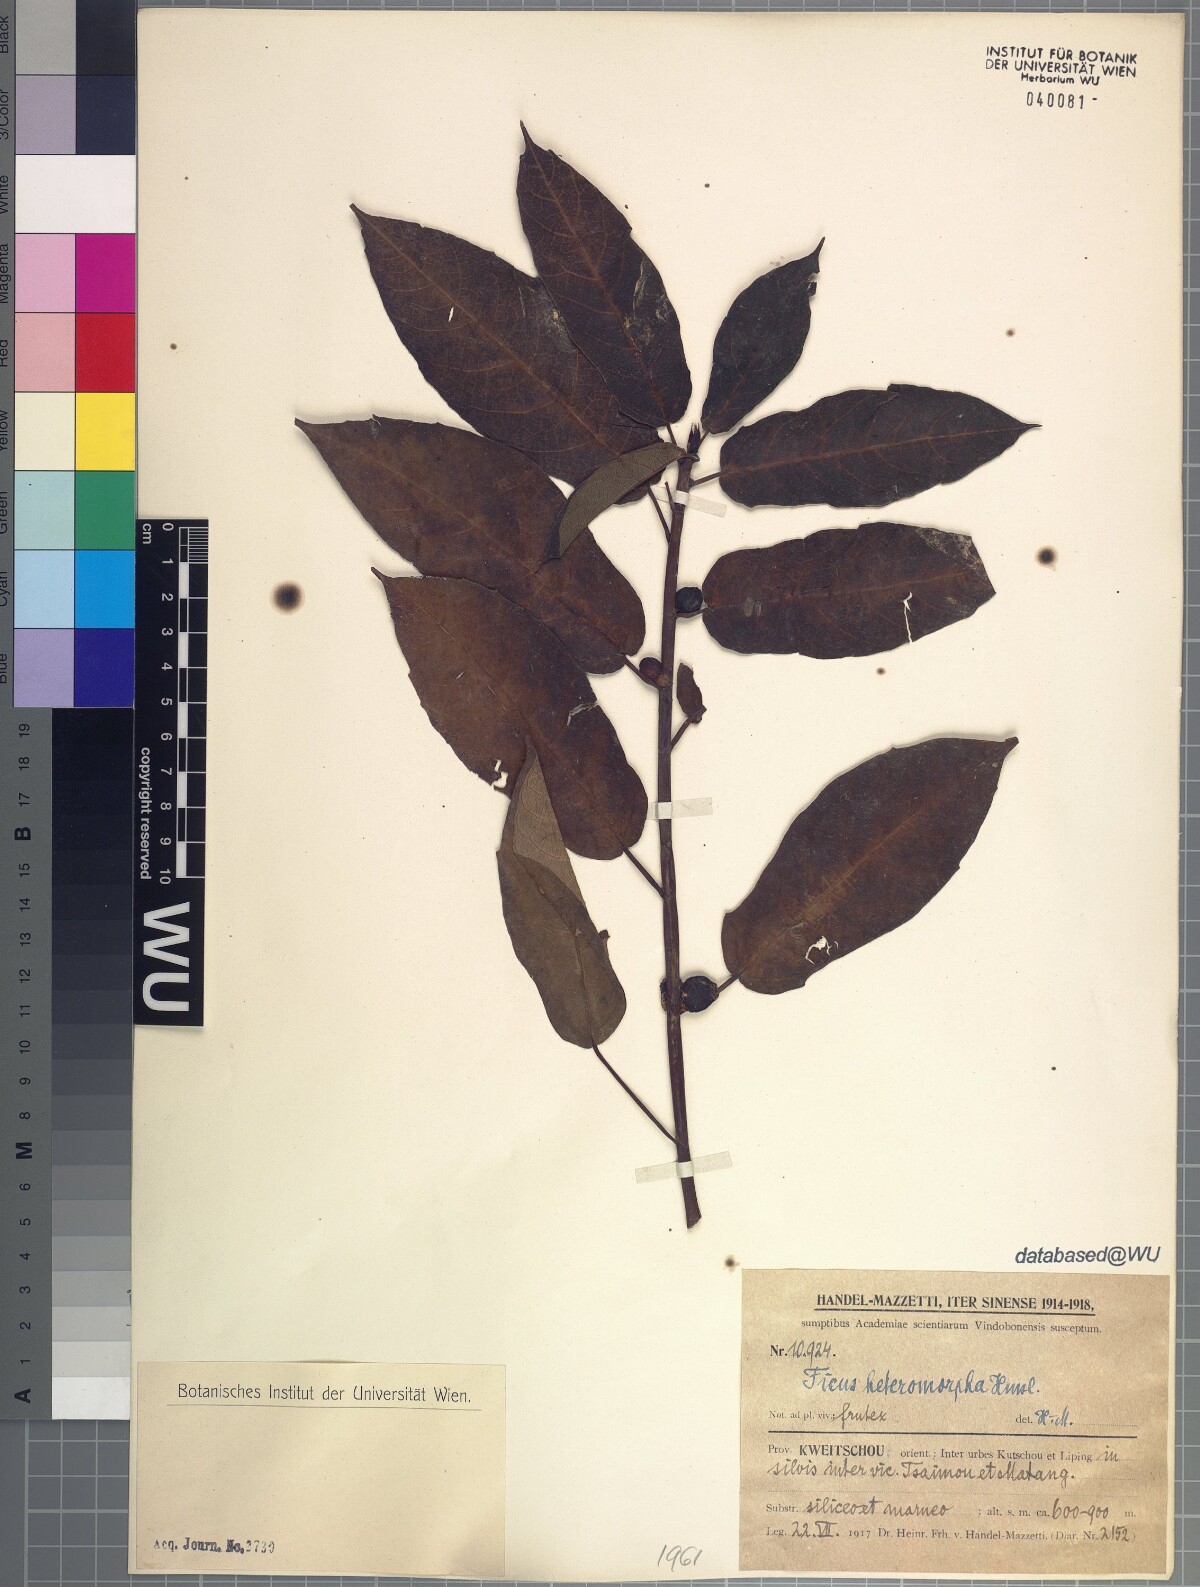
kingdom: Plantae
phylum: Tracheophyta
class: Magnoliopsida
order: Rosales
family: Moraceae
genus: Ficus
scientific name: Ficus heteromorpha
